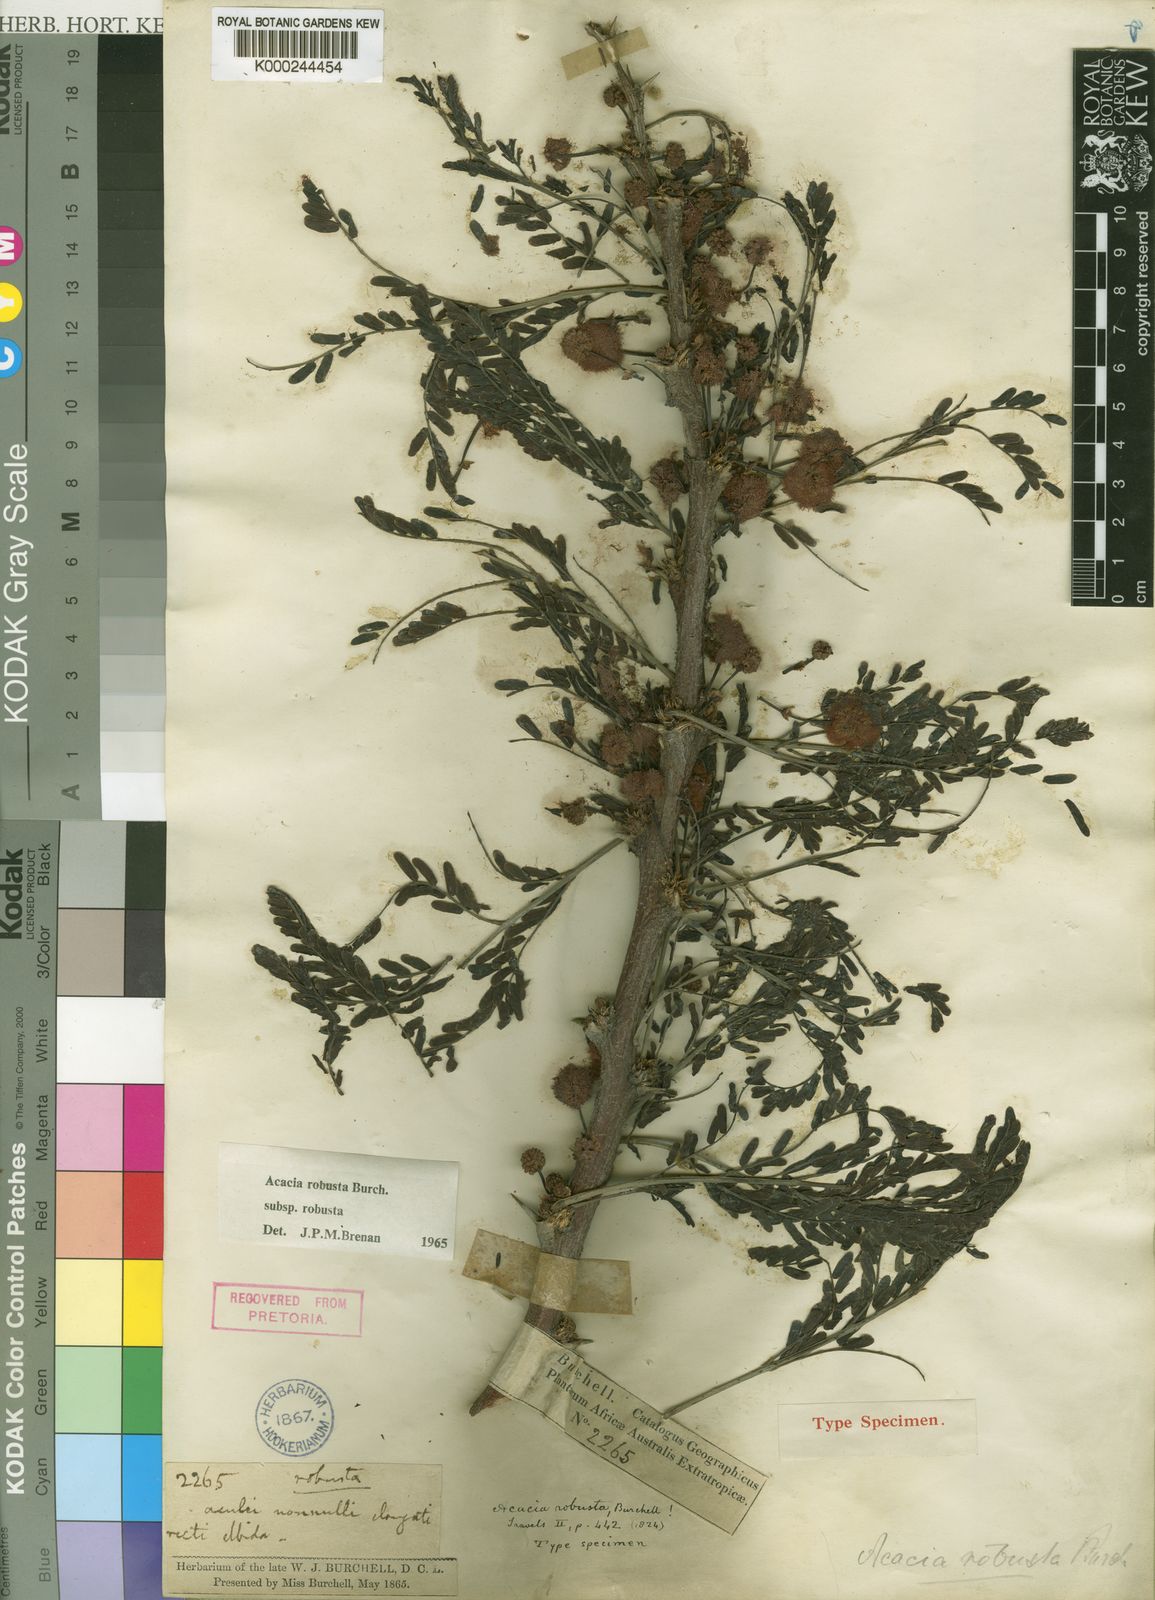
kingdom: Plantae
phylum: Tracheophyta
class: Magnoliopsida
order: Fabales
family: Fabaceae
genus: Vachellia
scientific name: Vachellia robusta
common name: Ankle thorn
